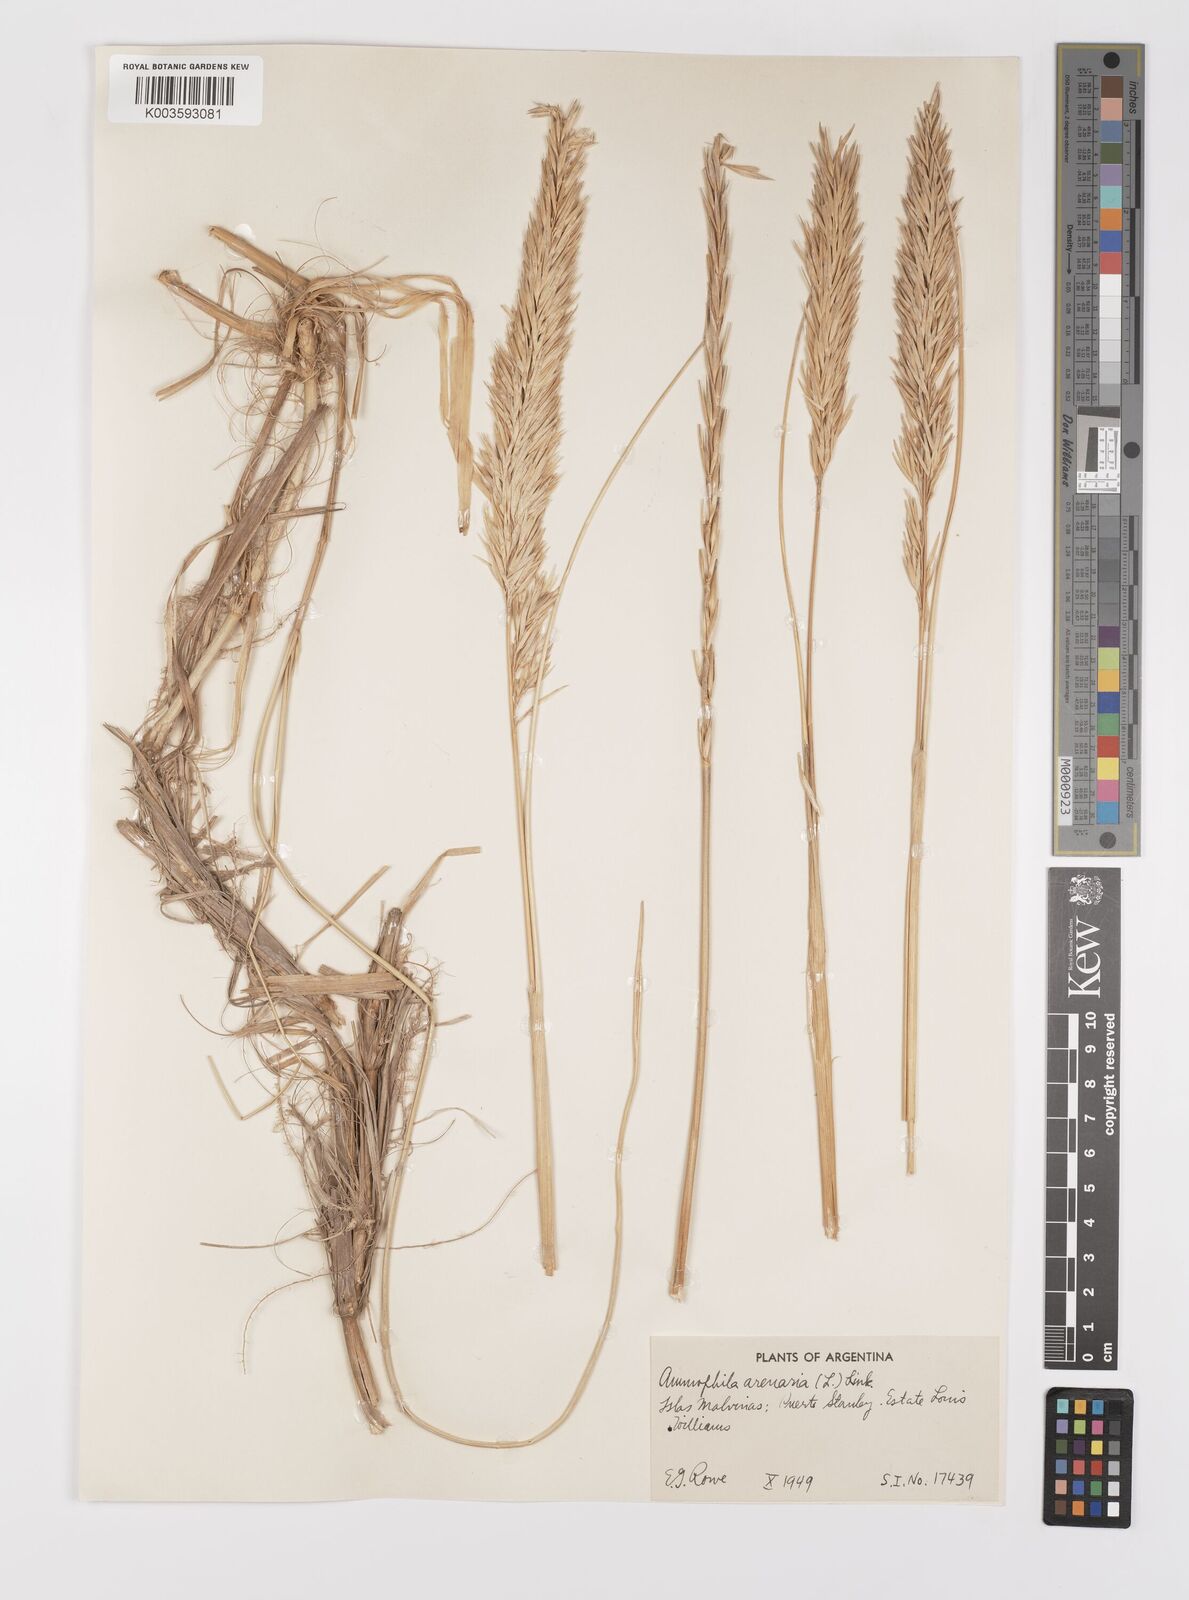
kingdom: Animalia
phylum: Arthropoda
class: Insecta
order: Hymenoptera
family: Sphecidae
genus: Ammophila
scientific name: Ammophila
